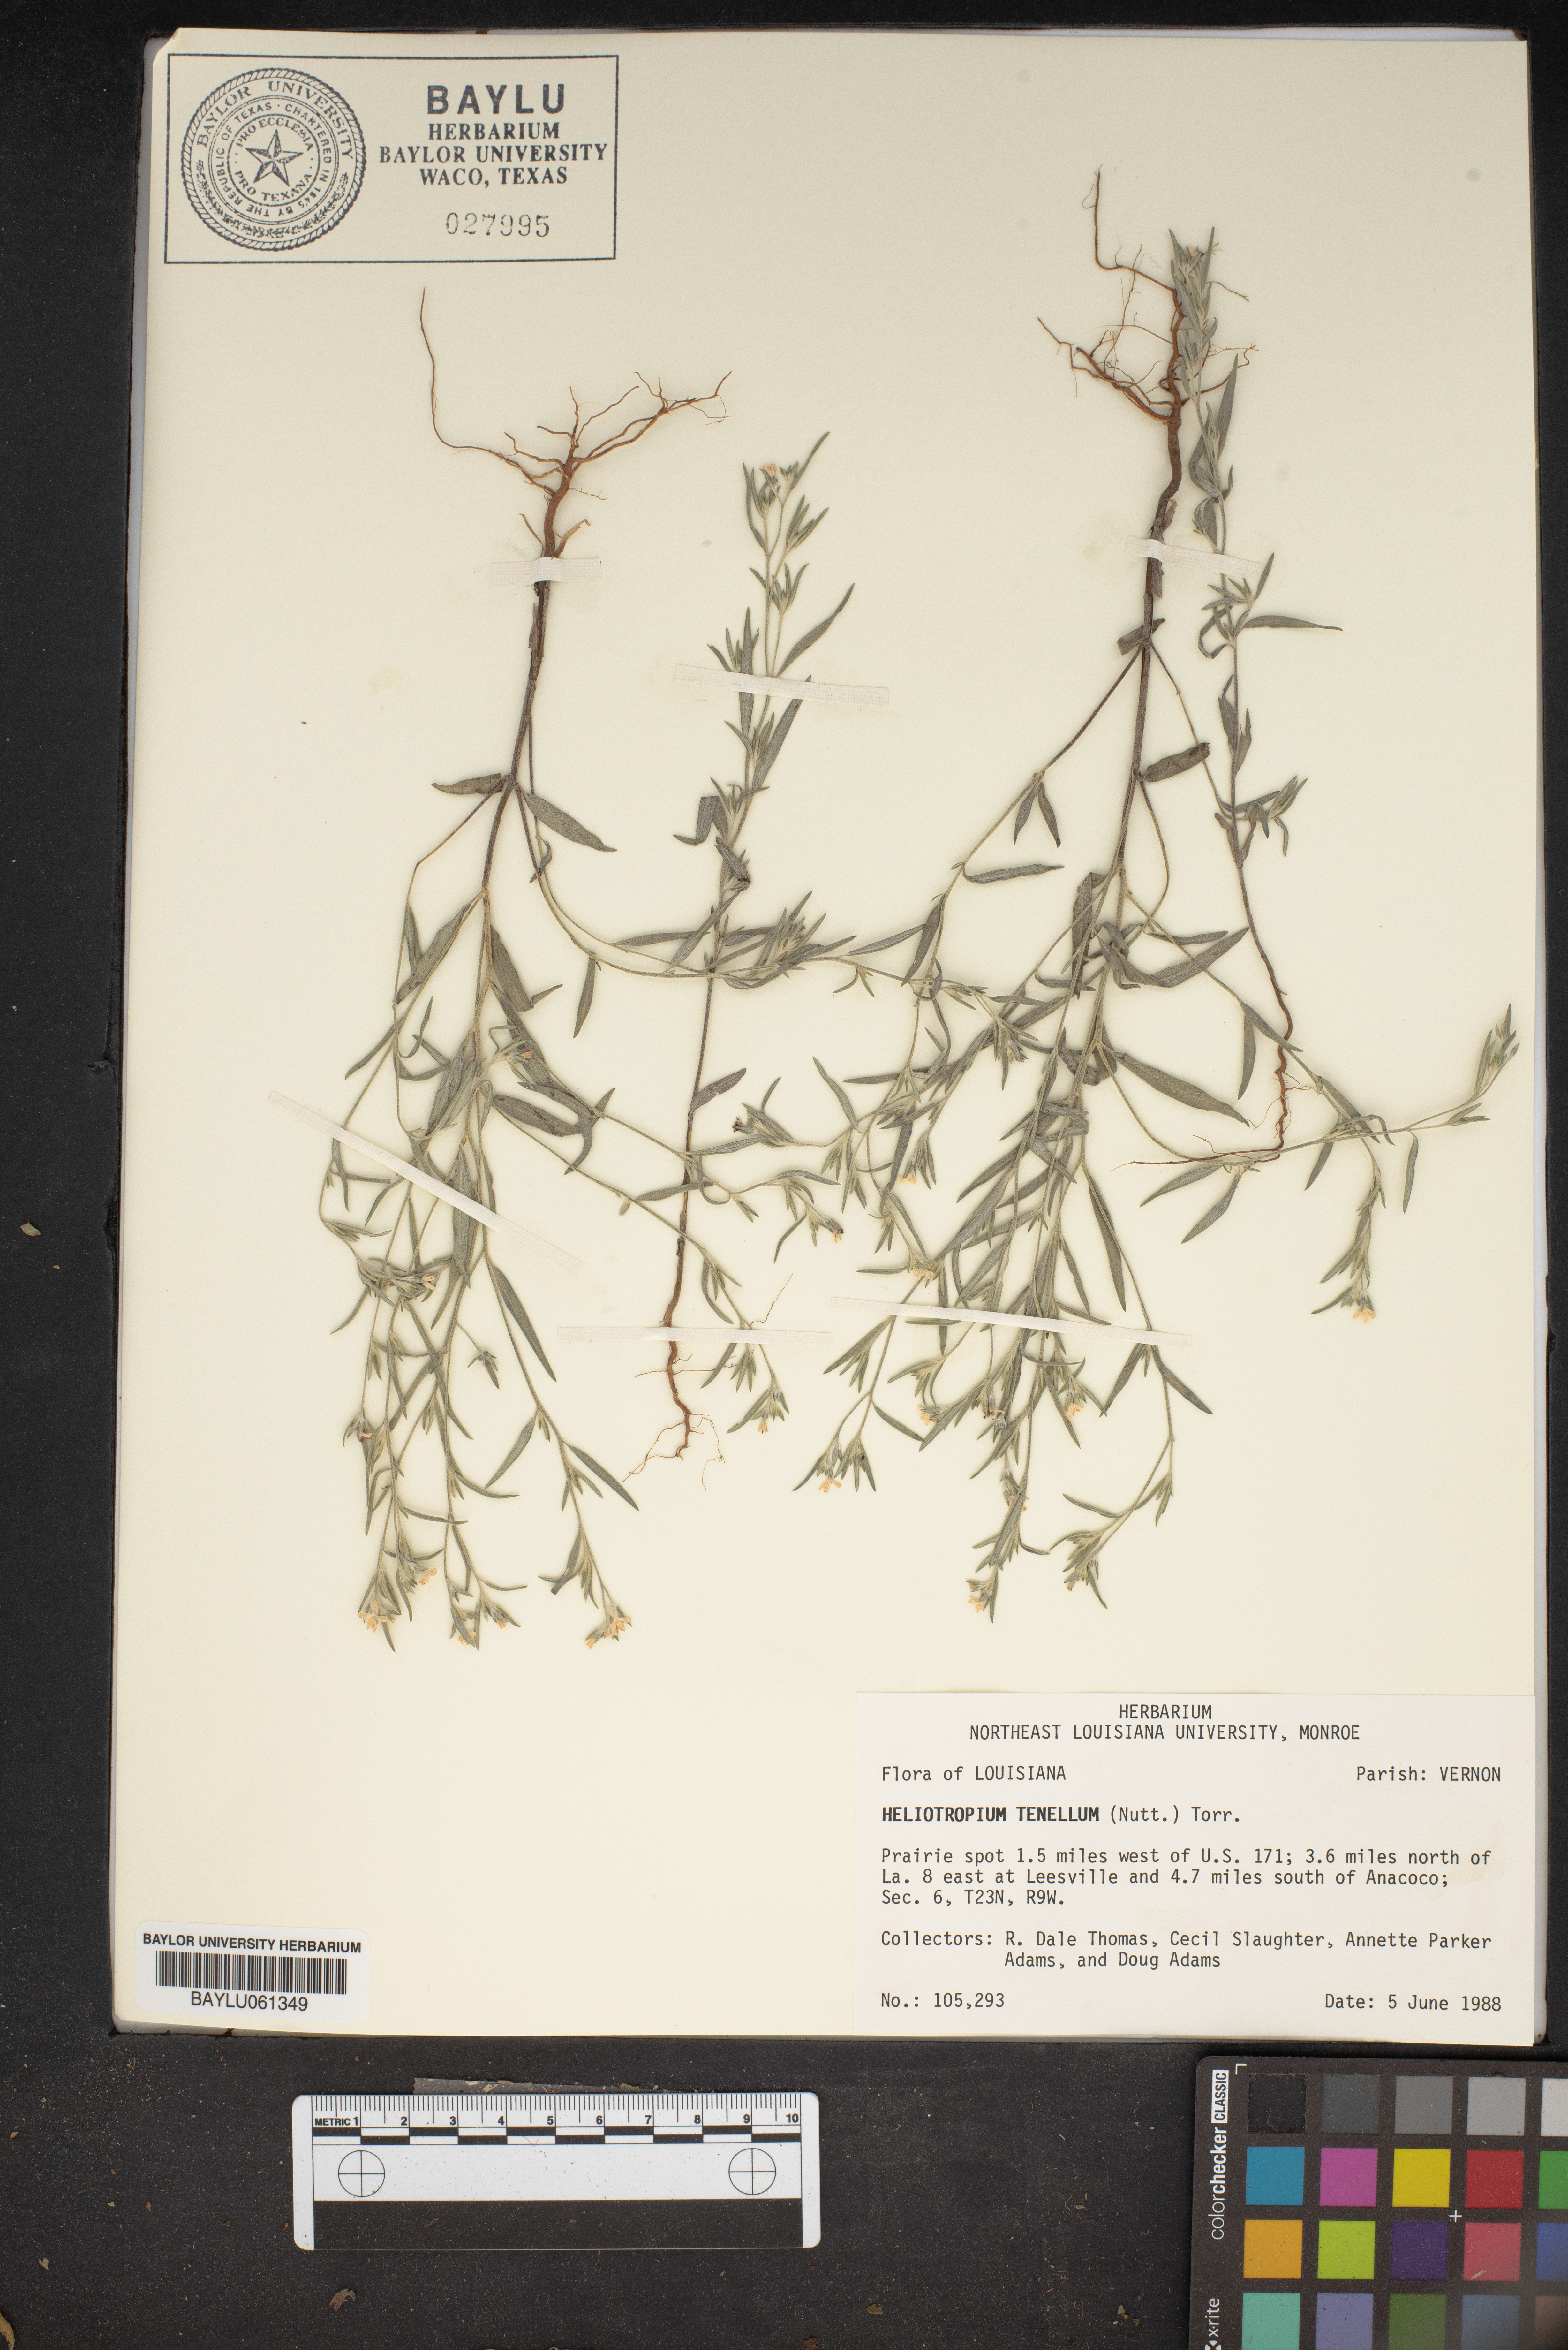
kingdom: Plantae
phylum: Tracheophyta
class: Magnoliopsida
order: Boraginales
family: Heliotropiaceae
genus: Euploca
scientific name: Euploca tenella
